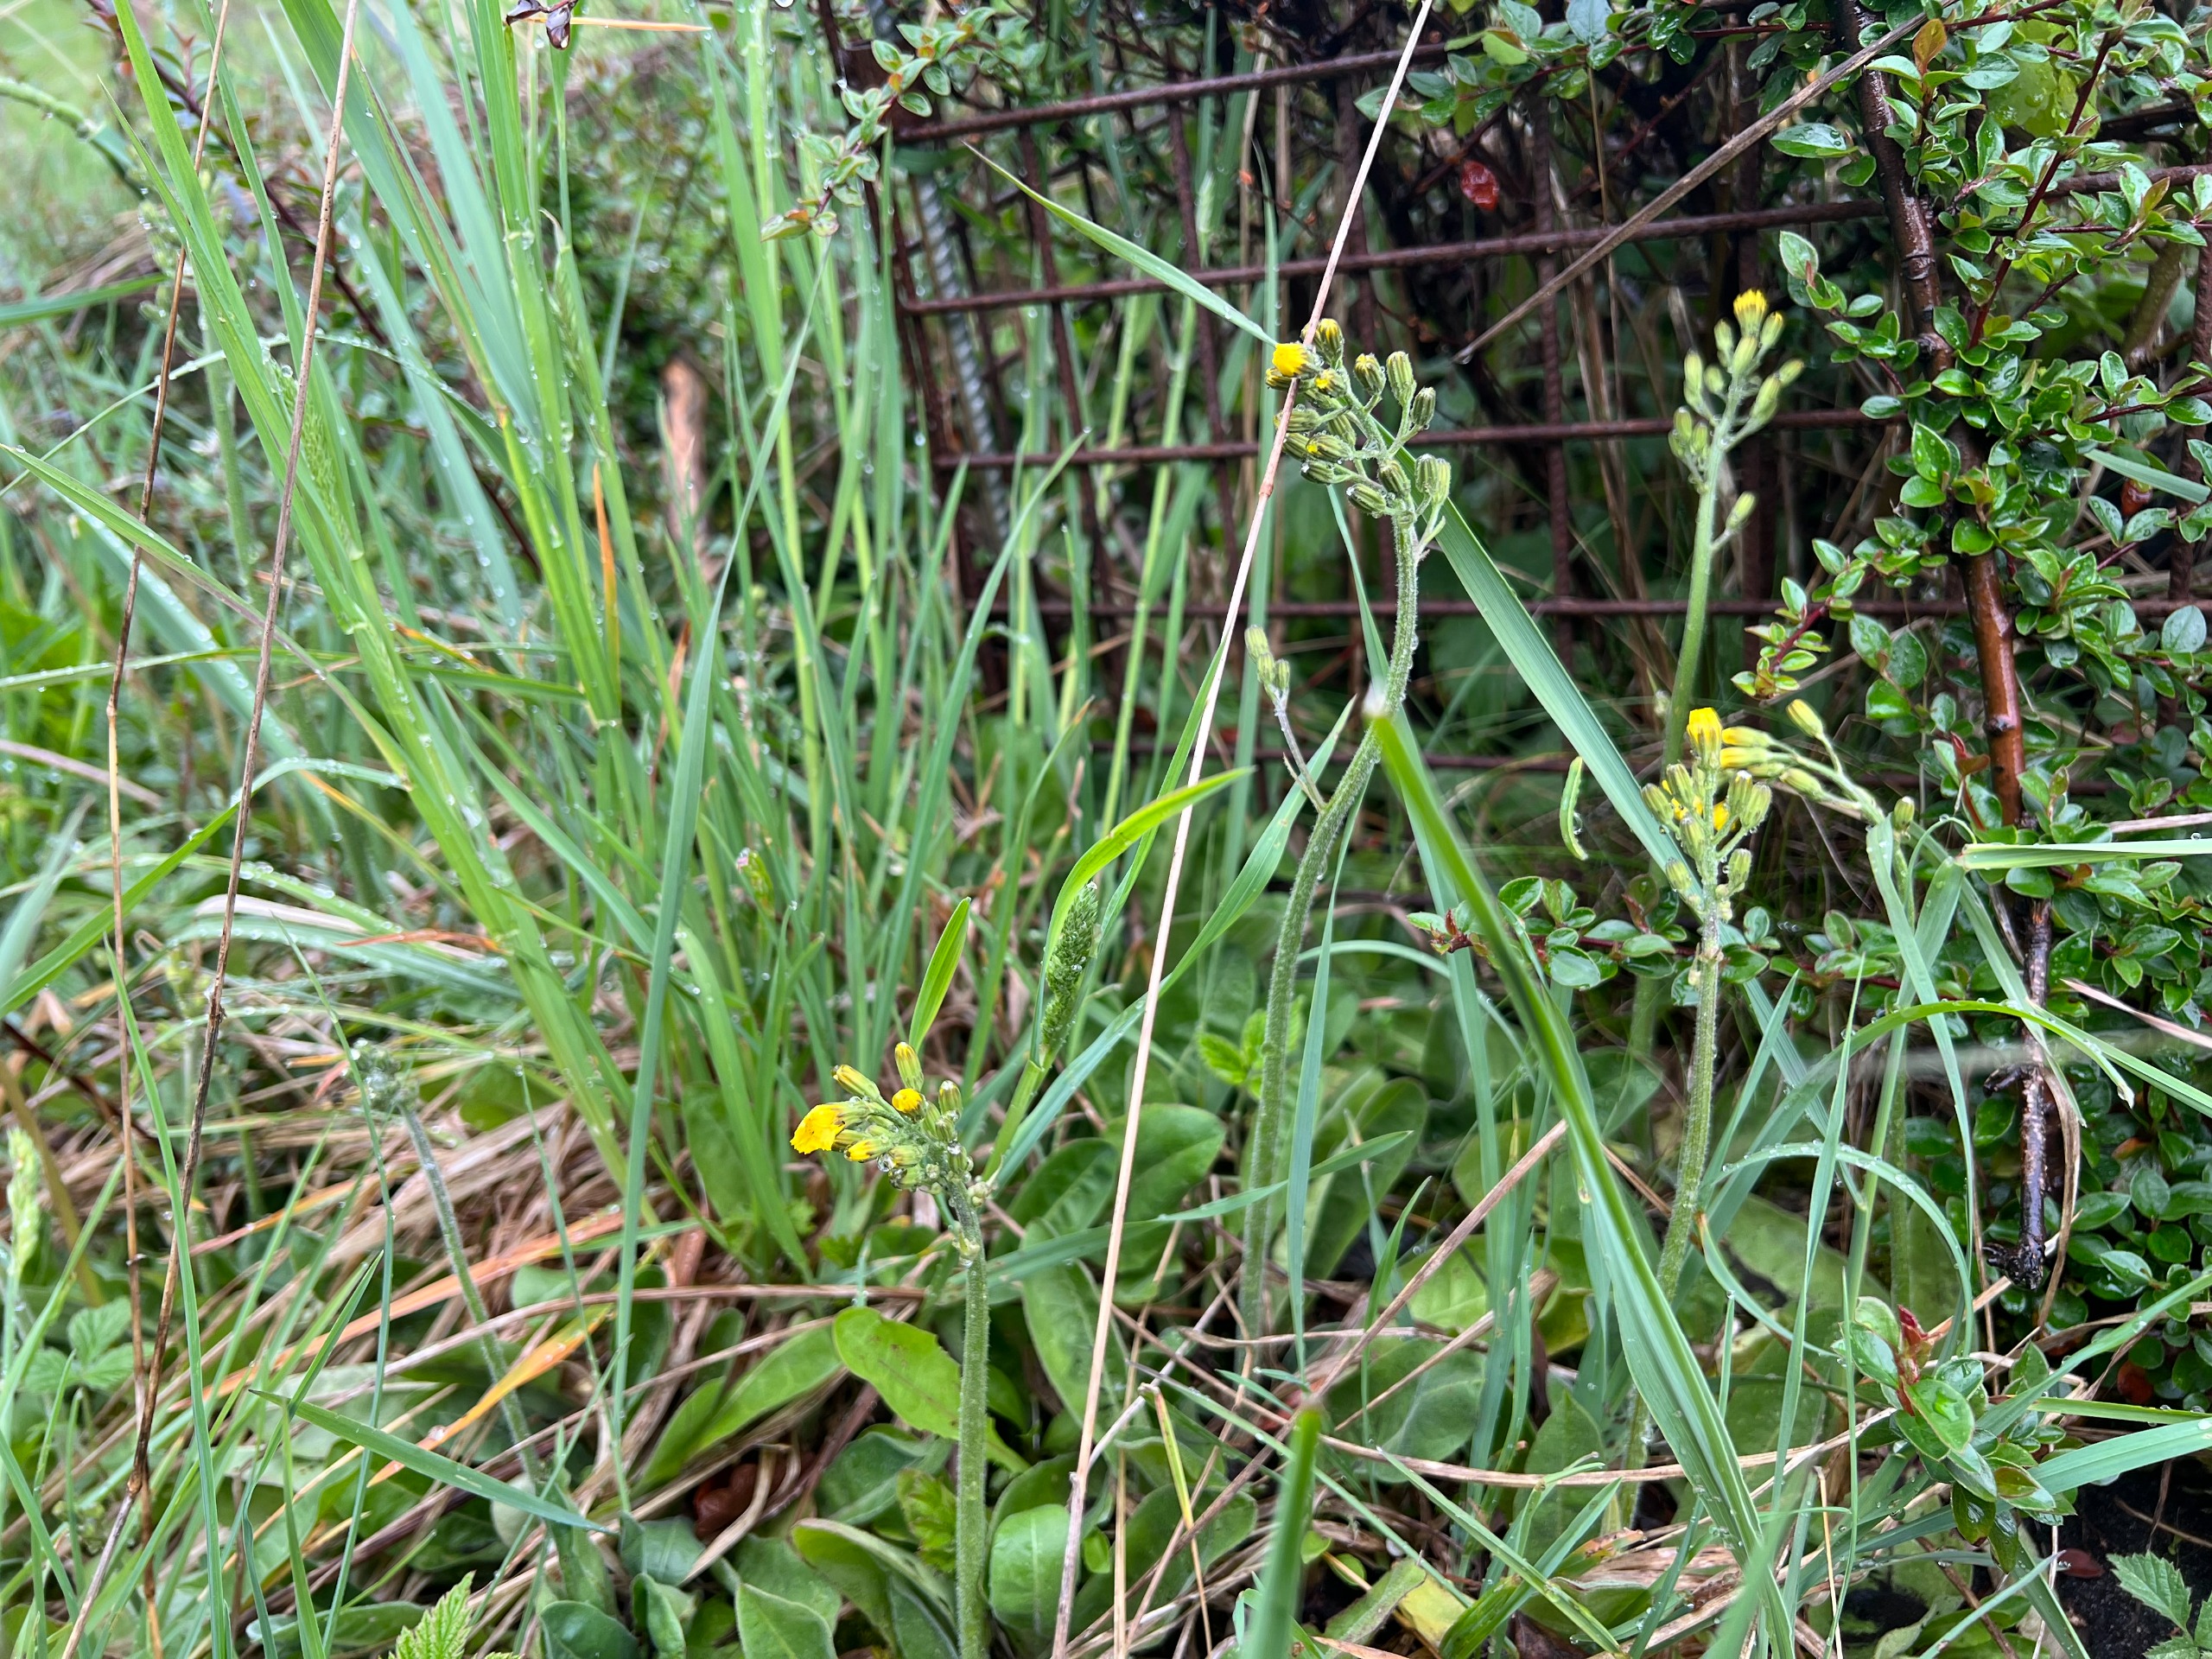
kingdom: Plantae
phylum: Tracheophyta
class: Magnoliopsida
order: Asterales
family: Asteraceae
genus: Crepis
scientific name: Crepis praemorsa
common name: Afbidt høgeskæg
